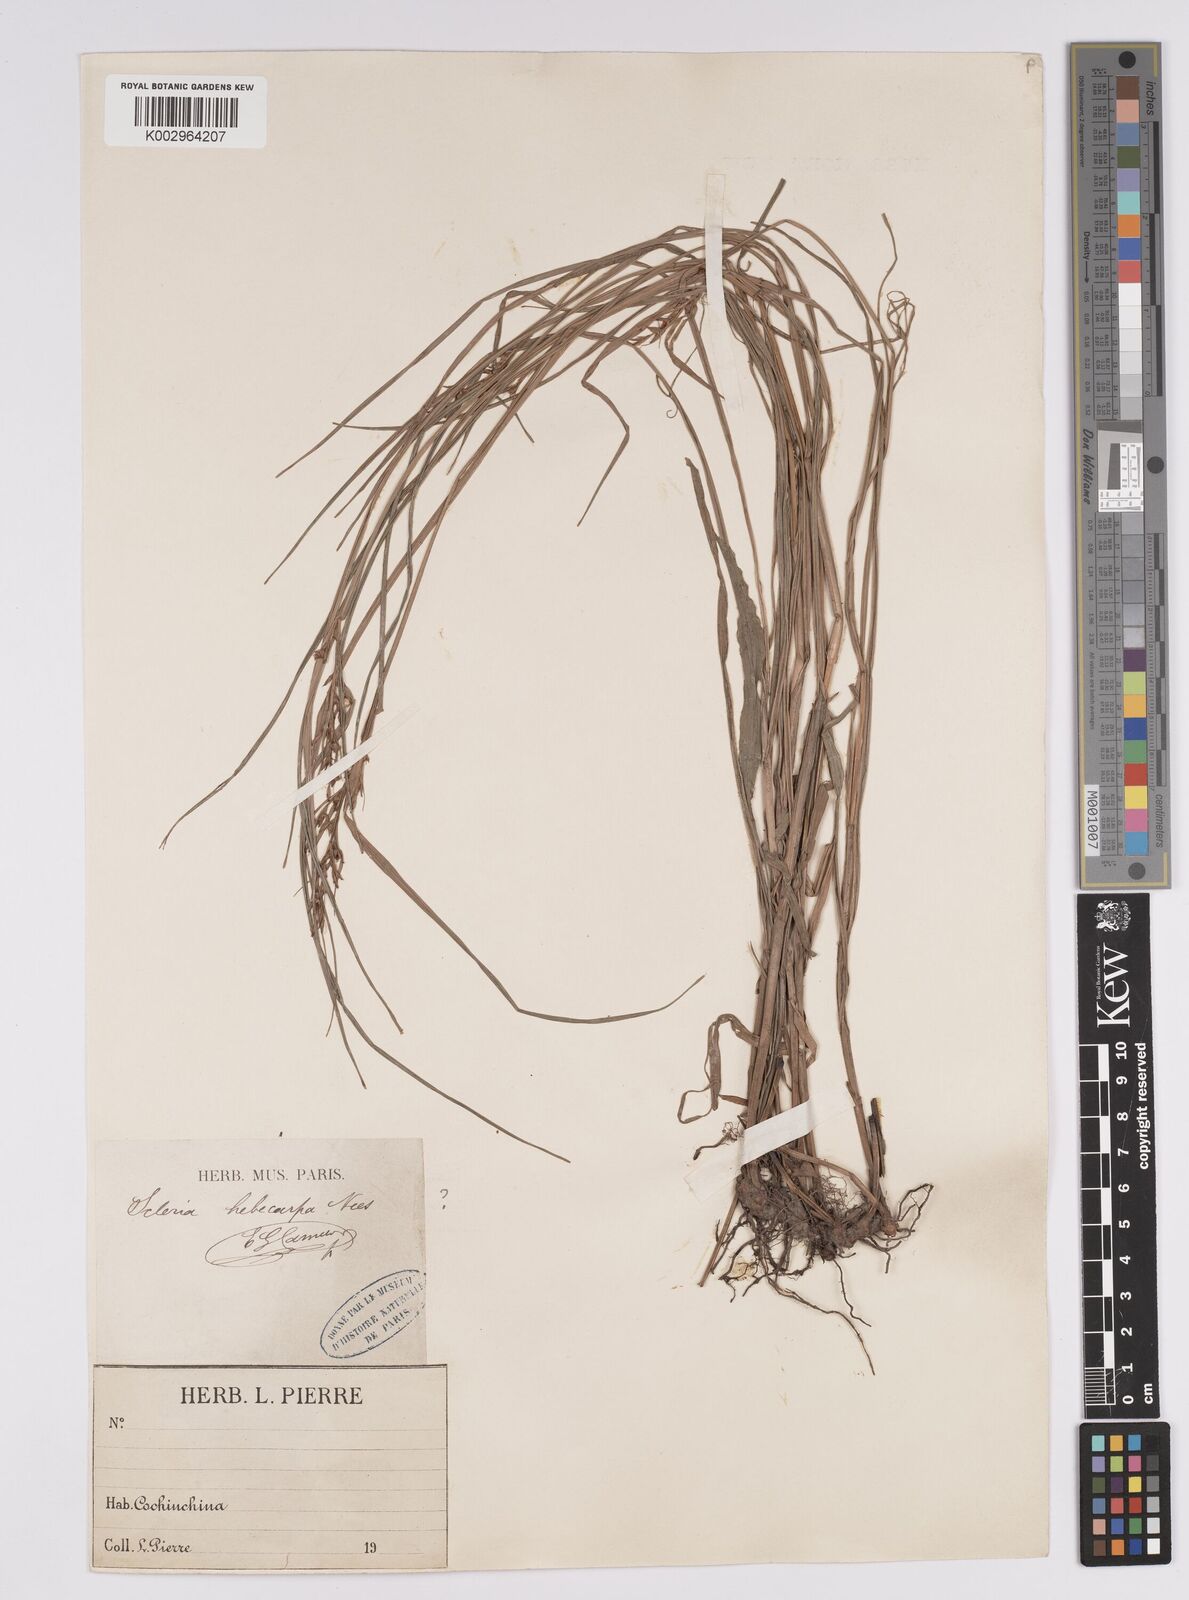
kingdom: Plantae
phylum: Tracheophyta
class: Liliopsida
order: Poales
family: Cyperaceae
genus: Scleria
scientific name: Scleria levis
